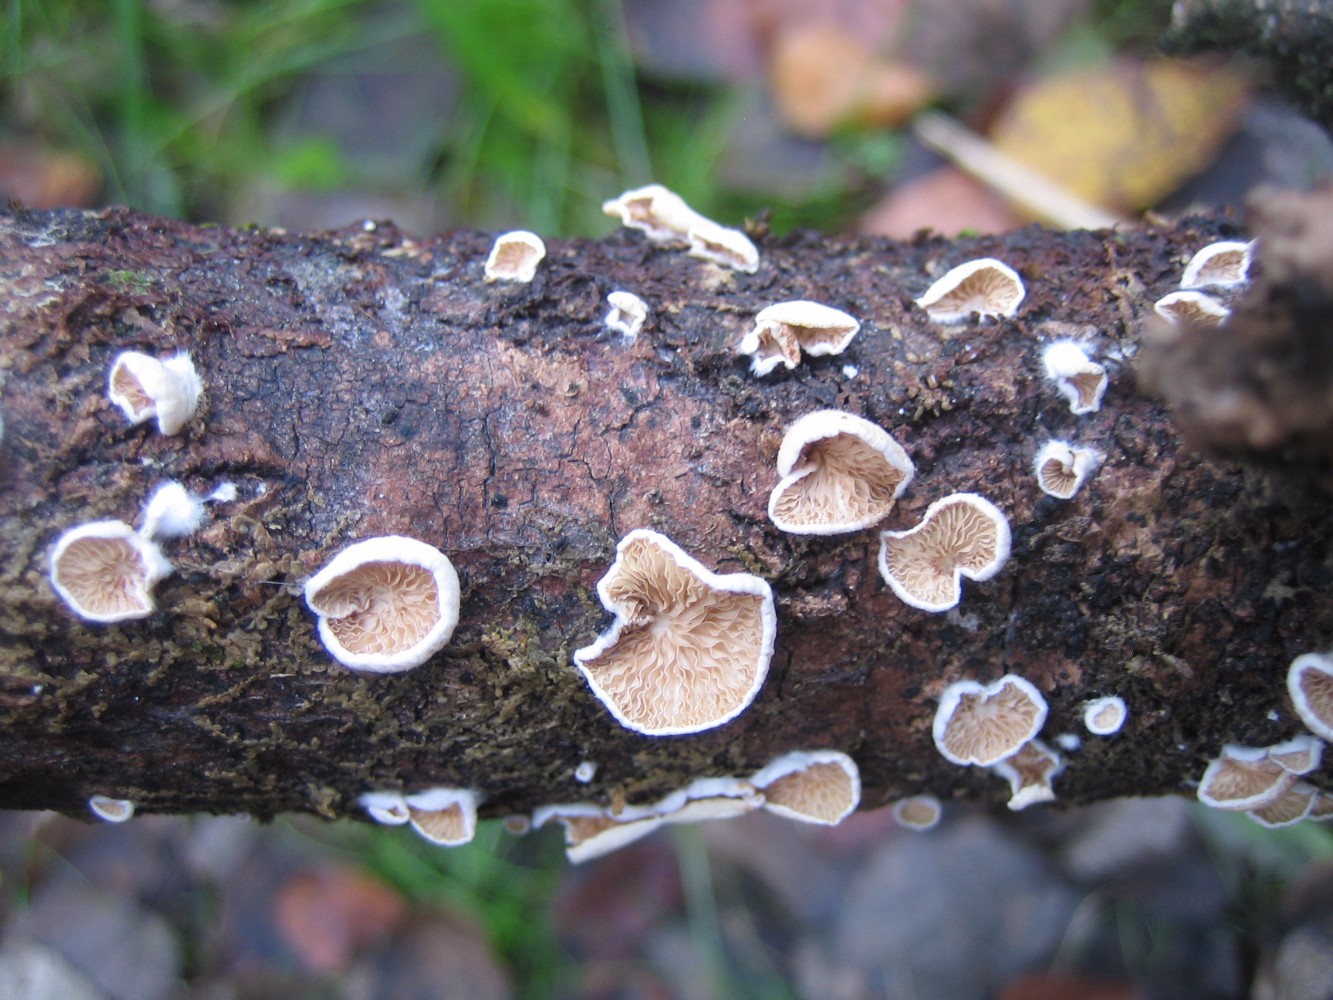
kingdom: Fungi
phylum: Basidiomycota
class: Agaricomycetes
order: Agaricales
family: Crepidotaceae
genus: Crepidotus
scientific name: Crepidotus
